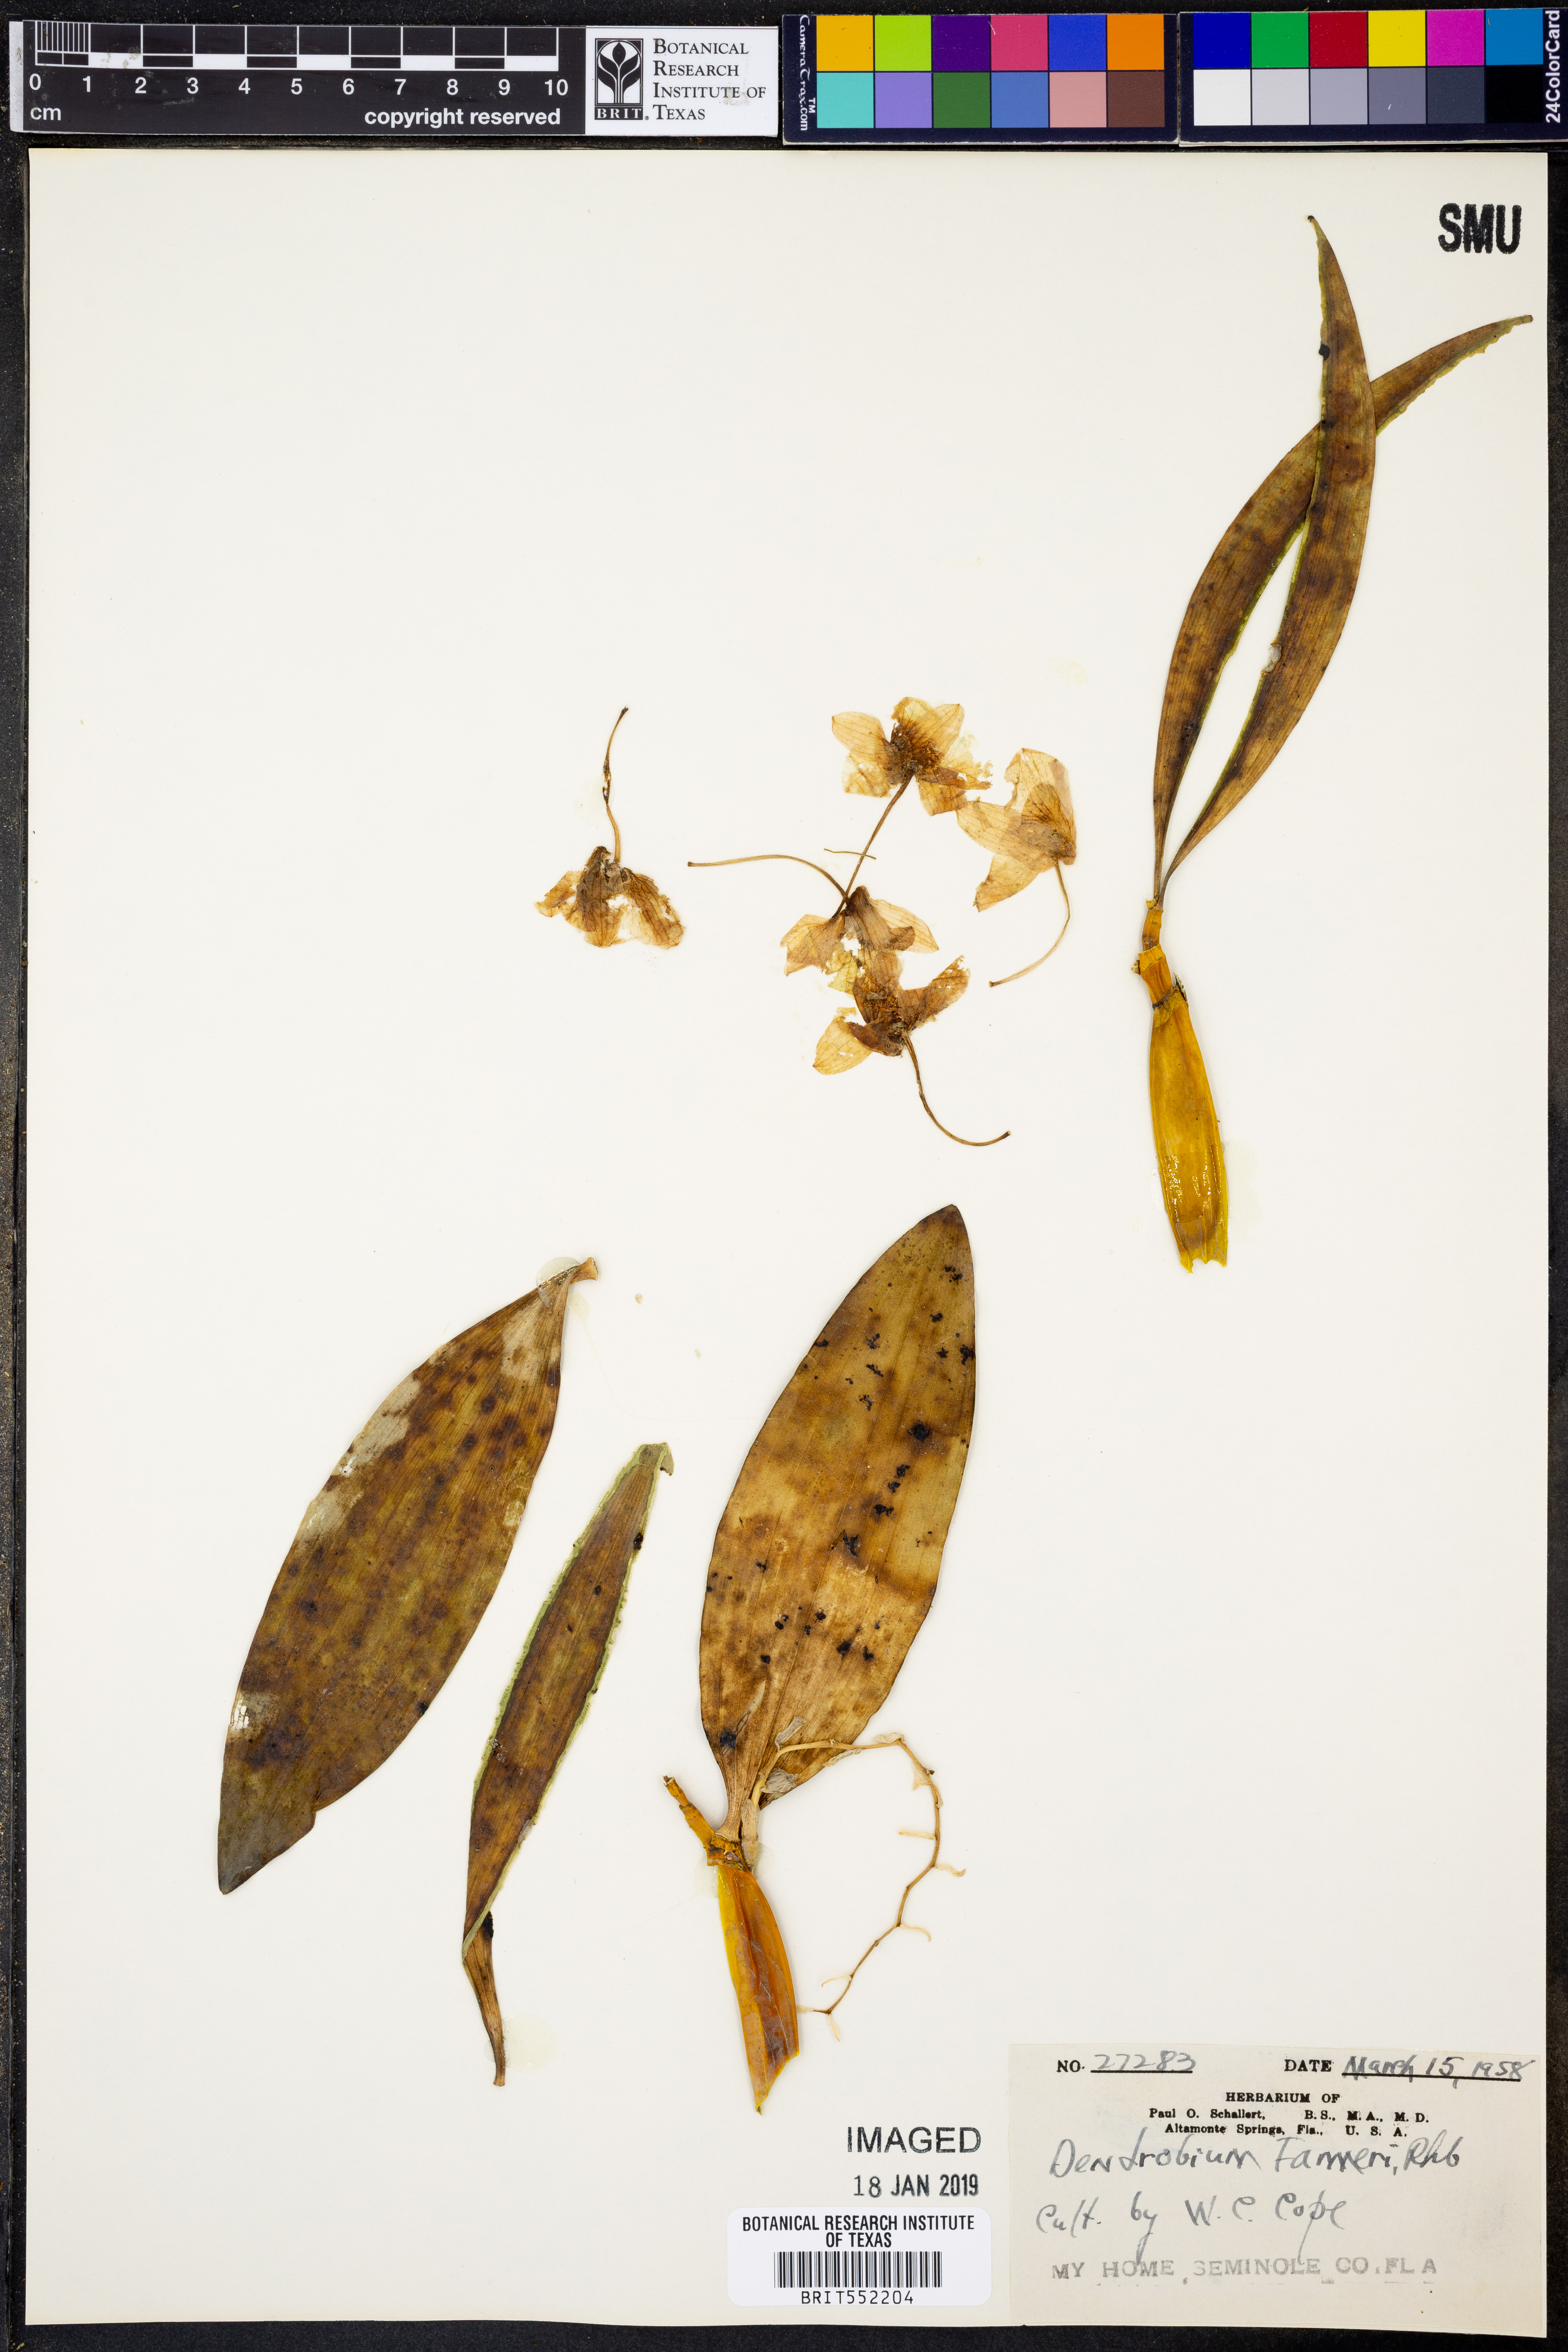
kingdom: Plantae
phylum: Tracheophyta
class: Liliopsida
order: Asparagales
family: Orchidaceae
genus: Dendrobium
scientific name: Dendrobium farmeri
